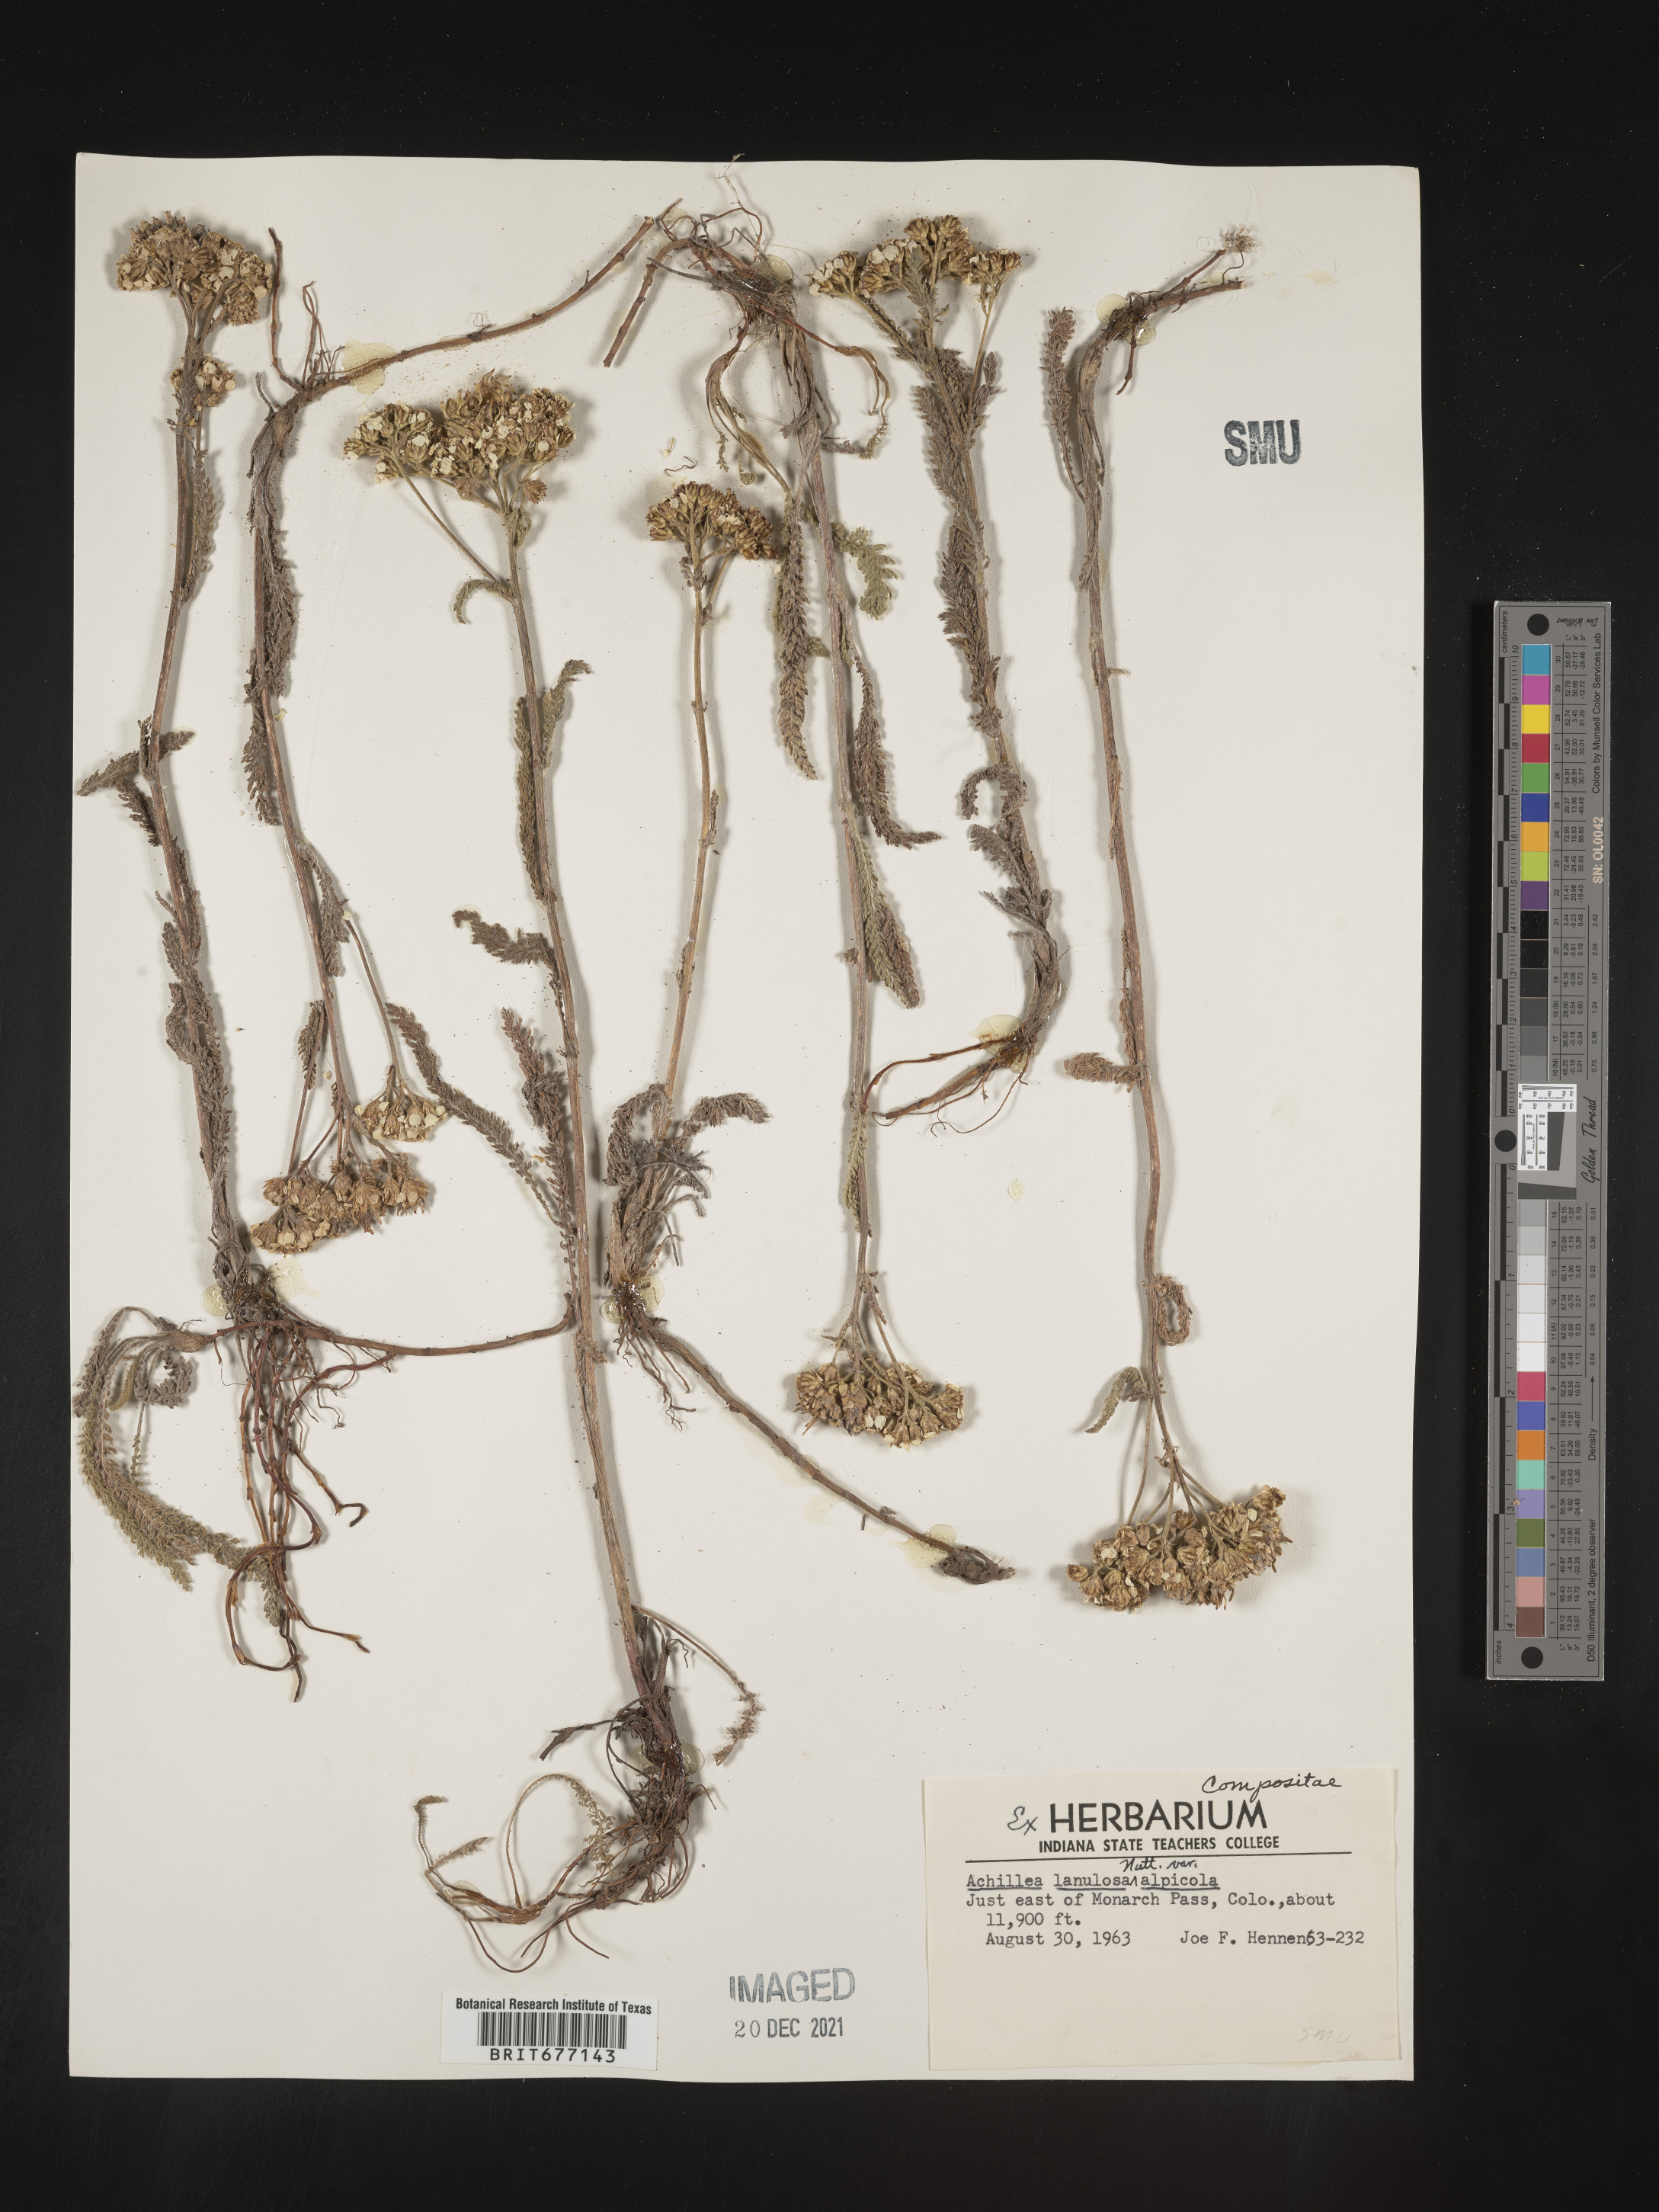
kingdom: Plantae
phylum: Tracheophyta
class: Magnoliopsida
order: Asterales
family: Asteraceae
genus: Achillea
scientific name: Achillea millefolium
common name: Yarrow
